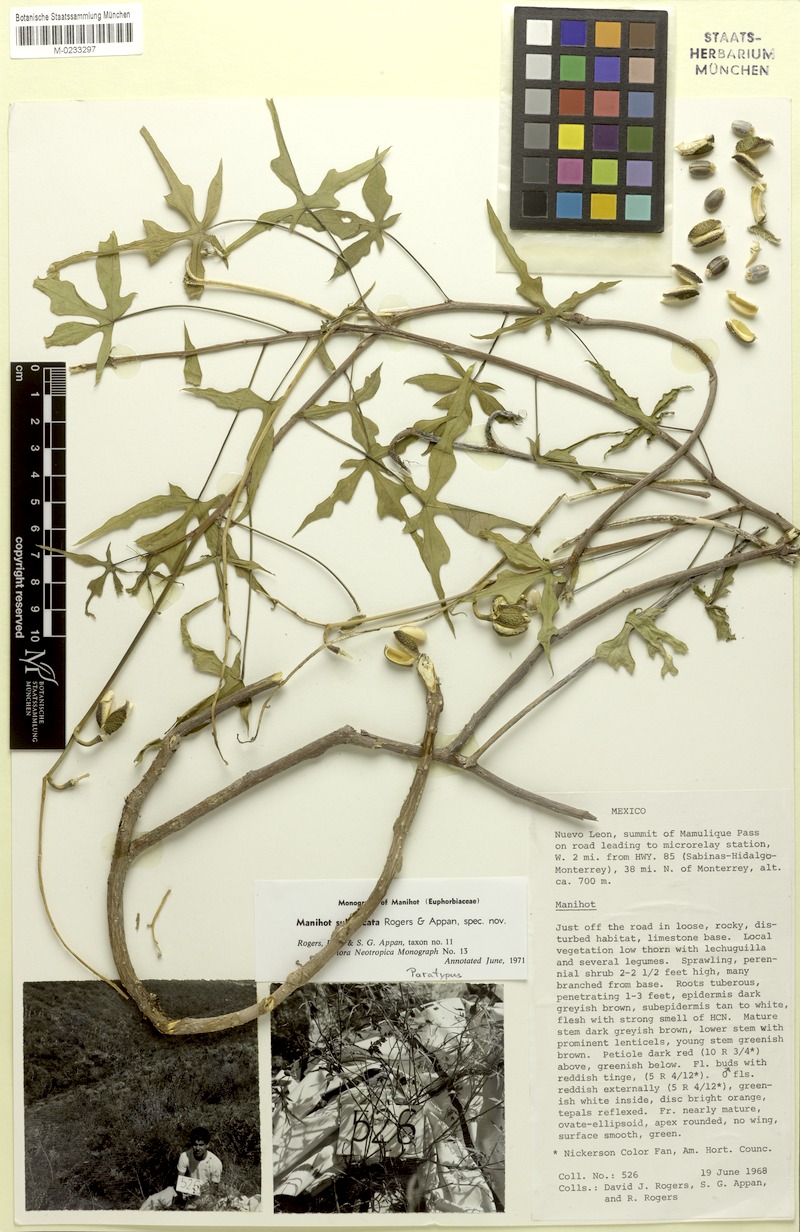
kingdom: Plantae
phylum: Tracheophyta
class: Magnoliopsida
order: Malpighiales
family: Euphorbiaceae
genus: Manihot
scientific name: Manihot subspicata
